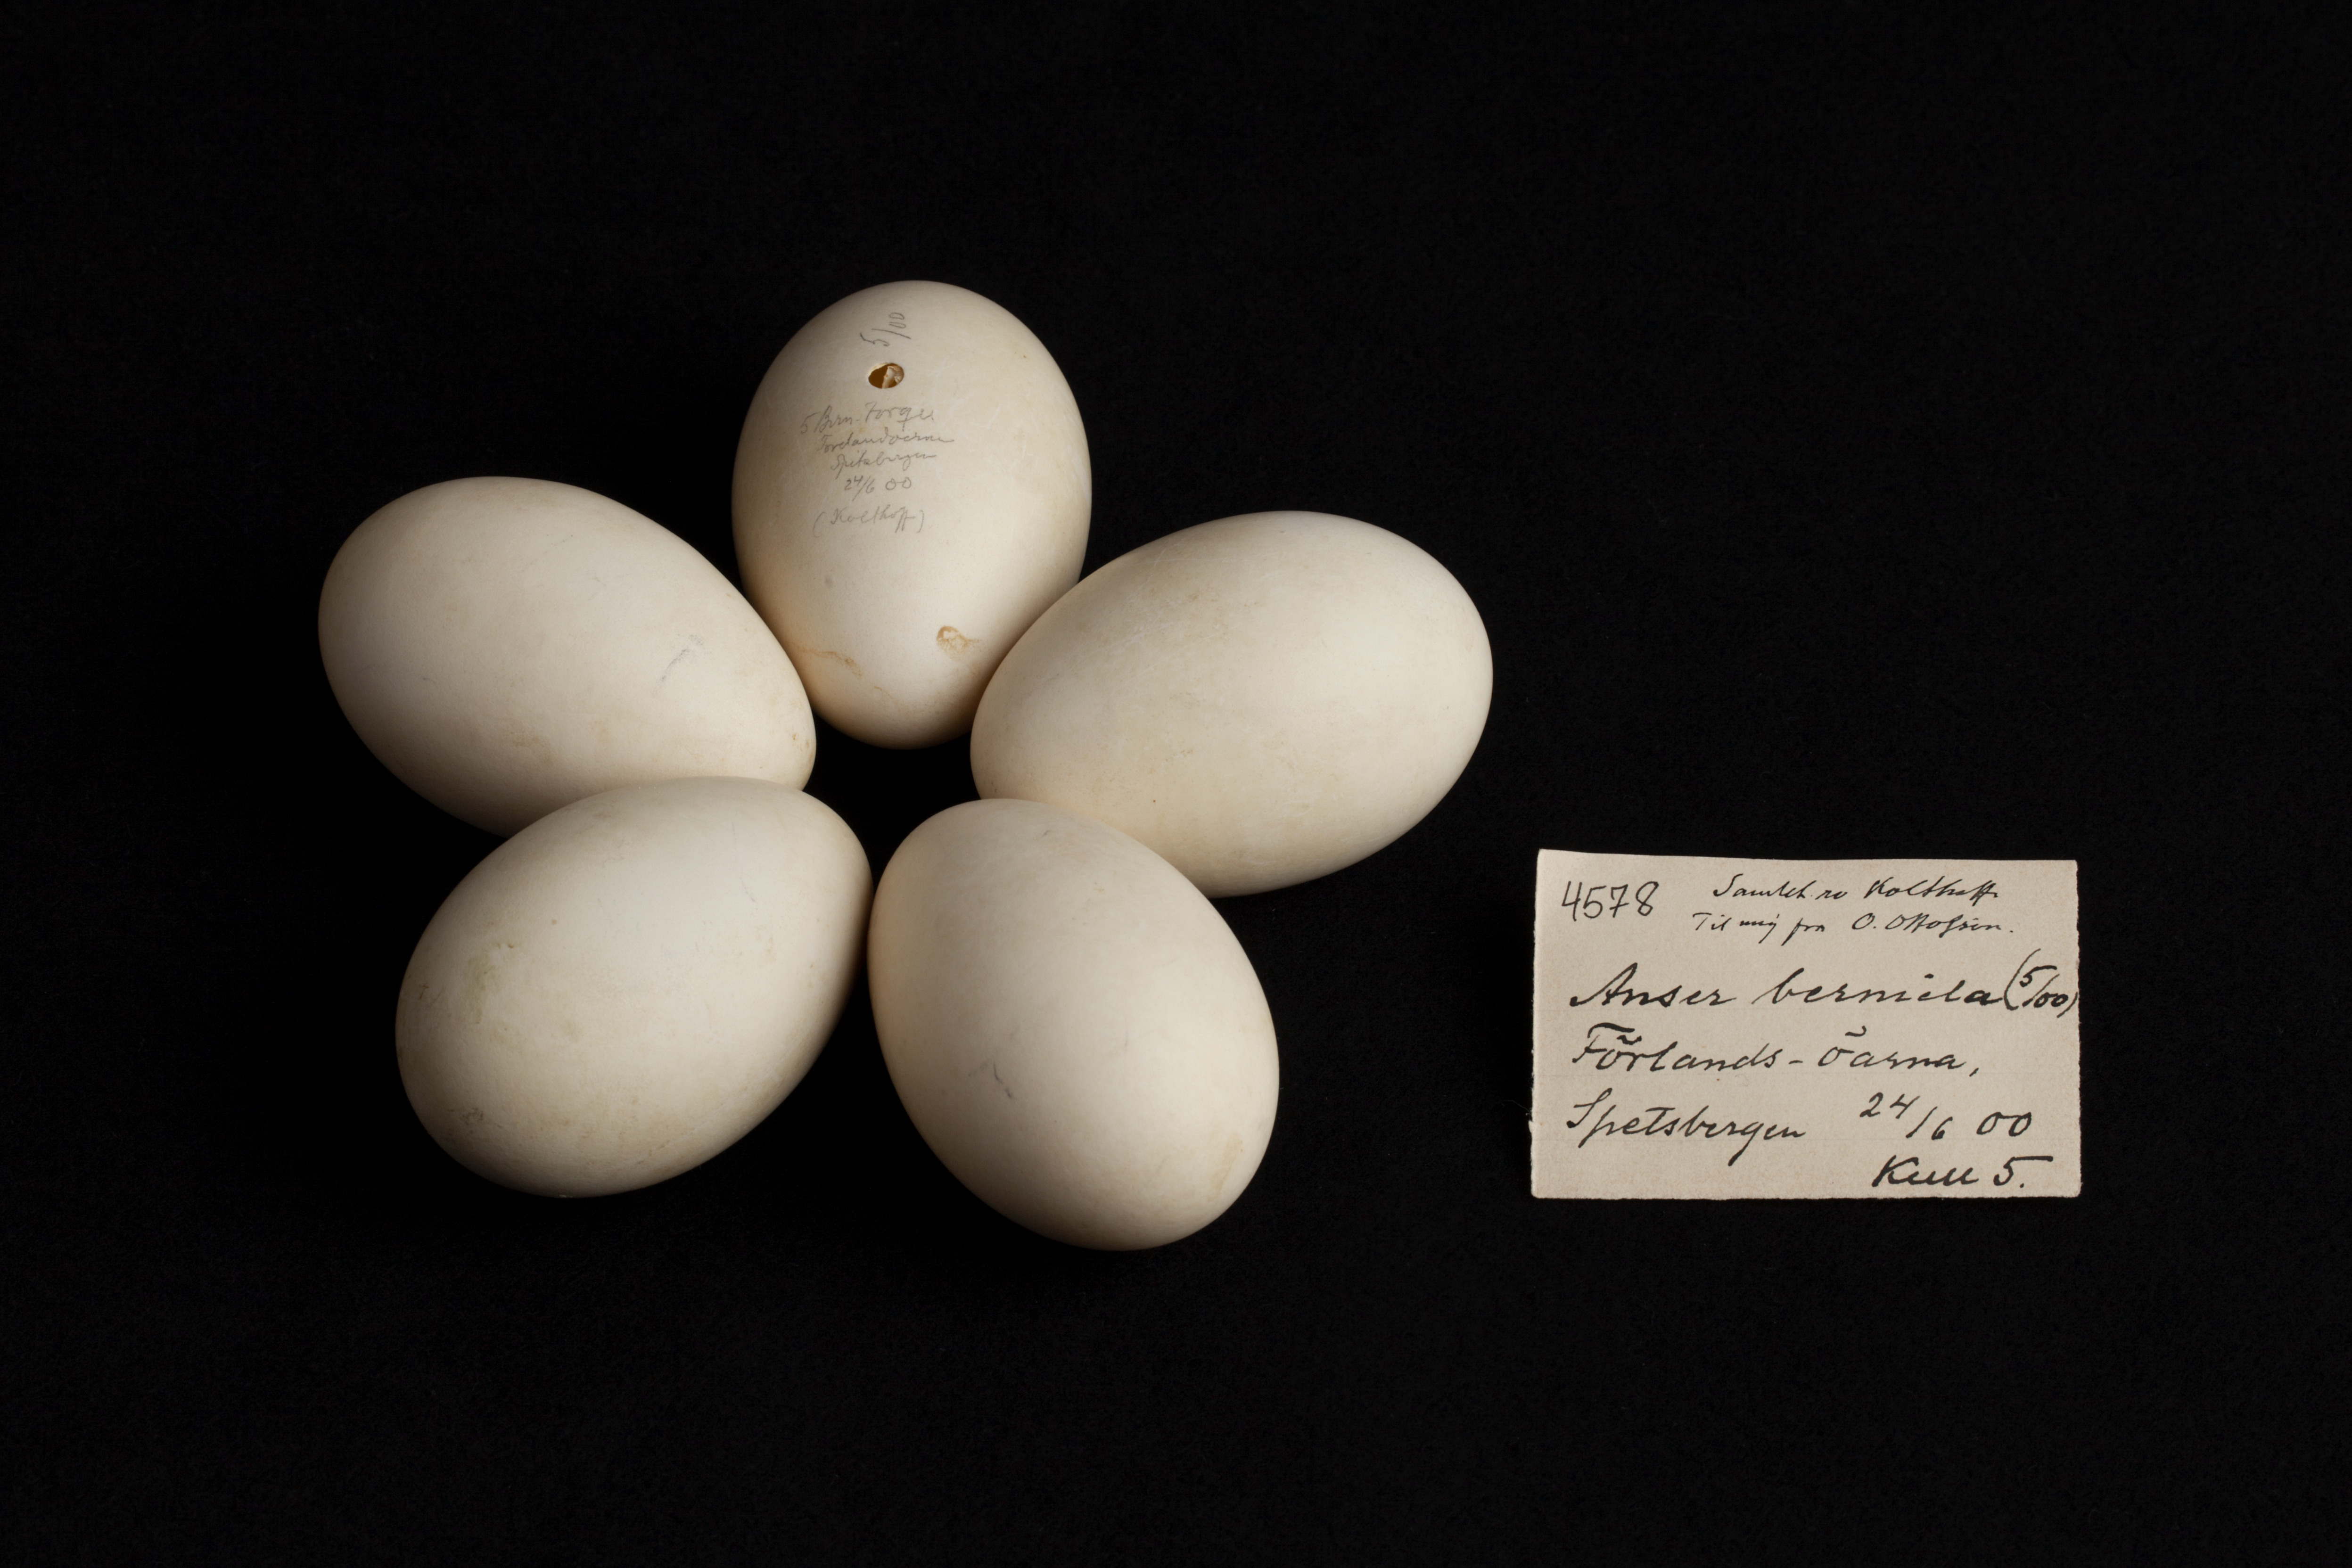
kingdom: Animalia
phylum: Chordata
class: Aves
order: Anseriformes
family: Anatidae
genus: Branta
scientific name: Branta bernicla
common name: Brant goose
